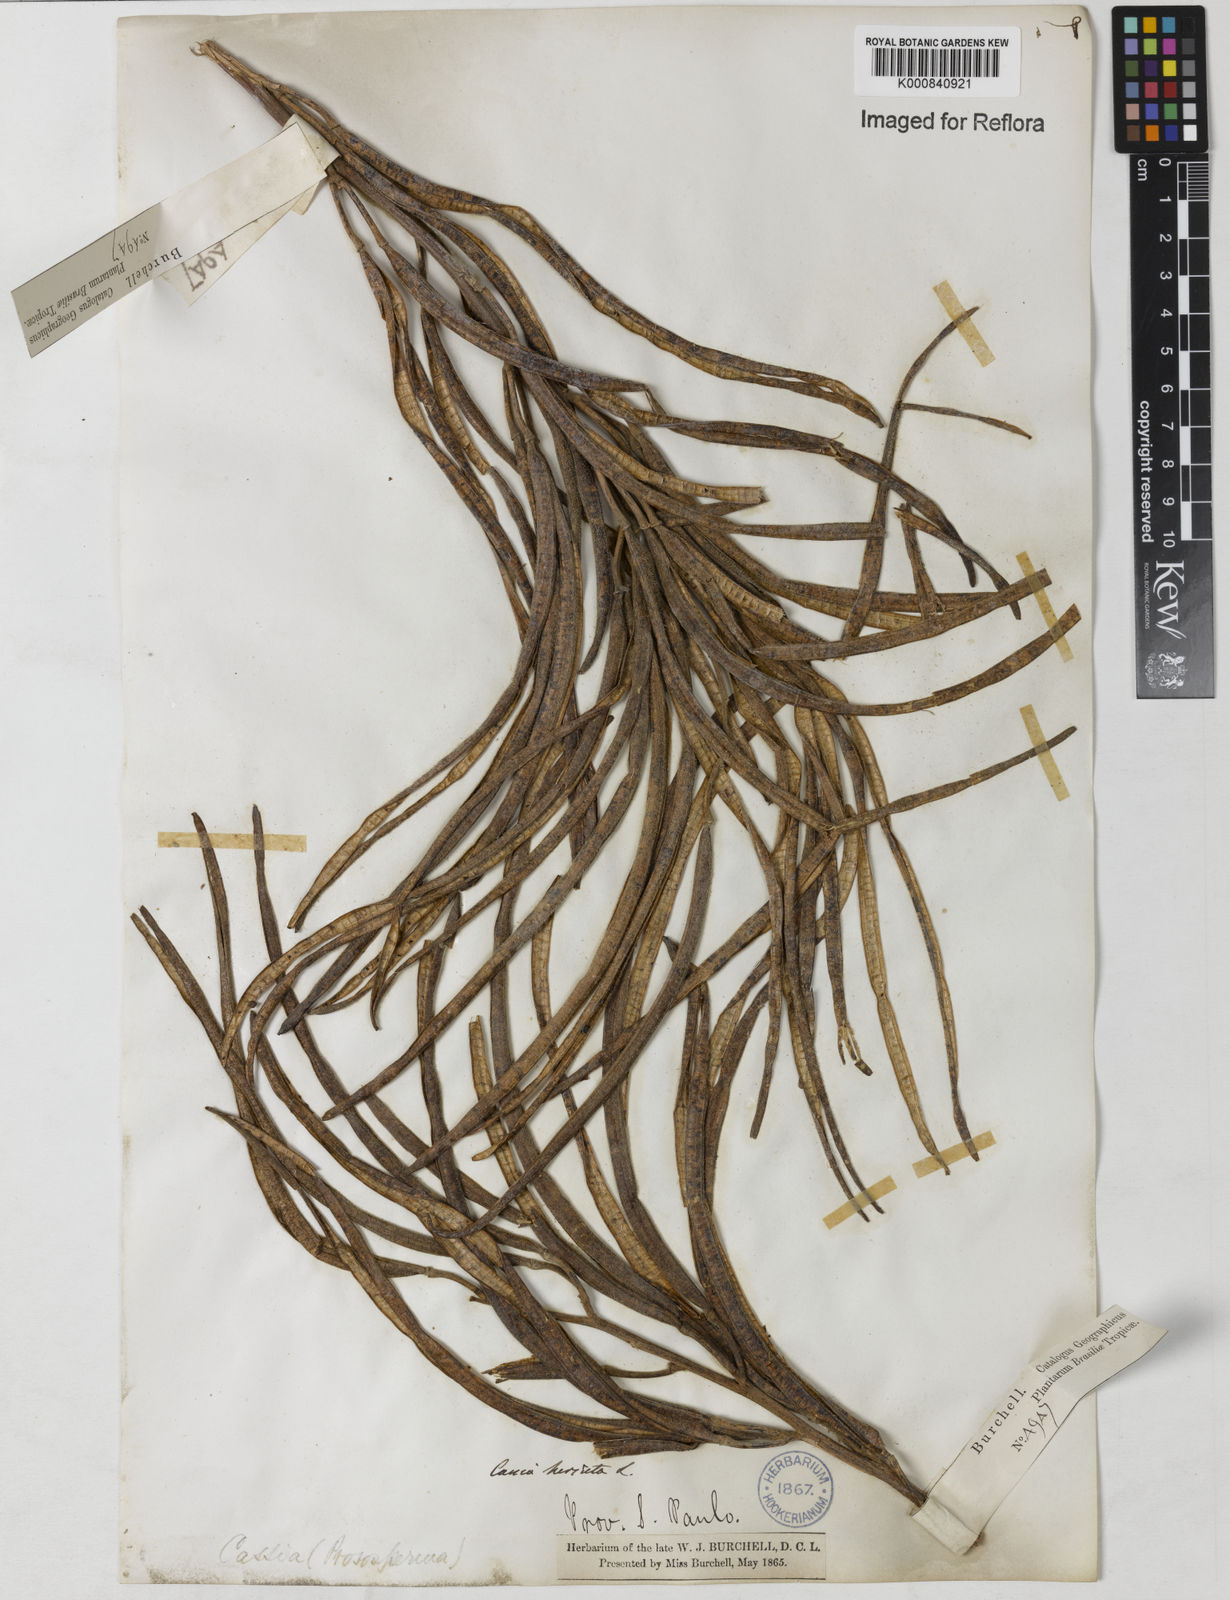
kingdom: Plantae
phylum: Tracheophyta
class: Magnoliopsida
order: Fabales
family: Fabaceae
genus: Senna
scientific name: Senna hirsuta
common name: Woolly senna
